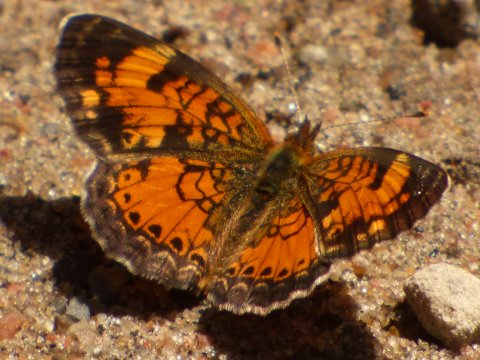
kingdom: Animalia
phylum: Arthropoda
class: Insecta
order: Lepidoptera
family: Nymphalidae
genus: Phyciodes
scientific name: Phyciodes tharos
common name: Northern Crescent
